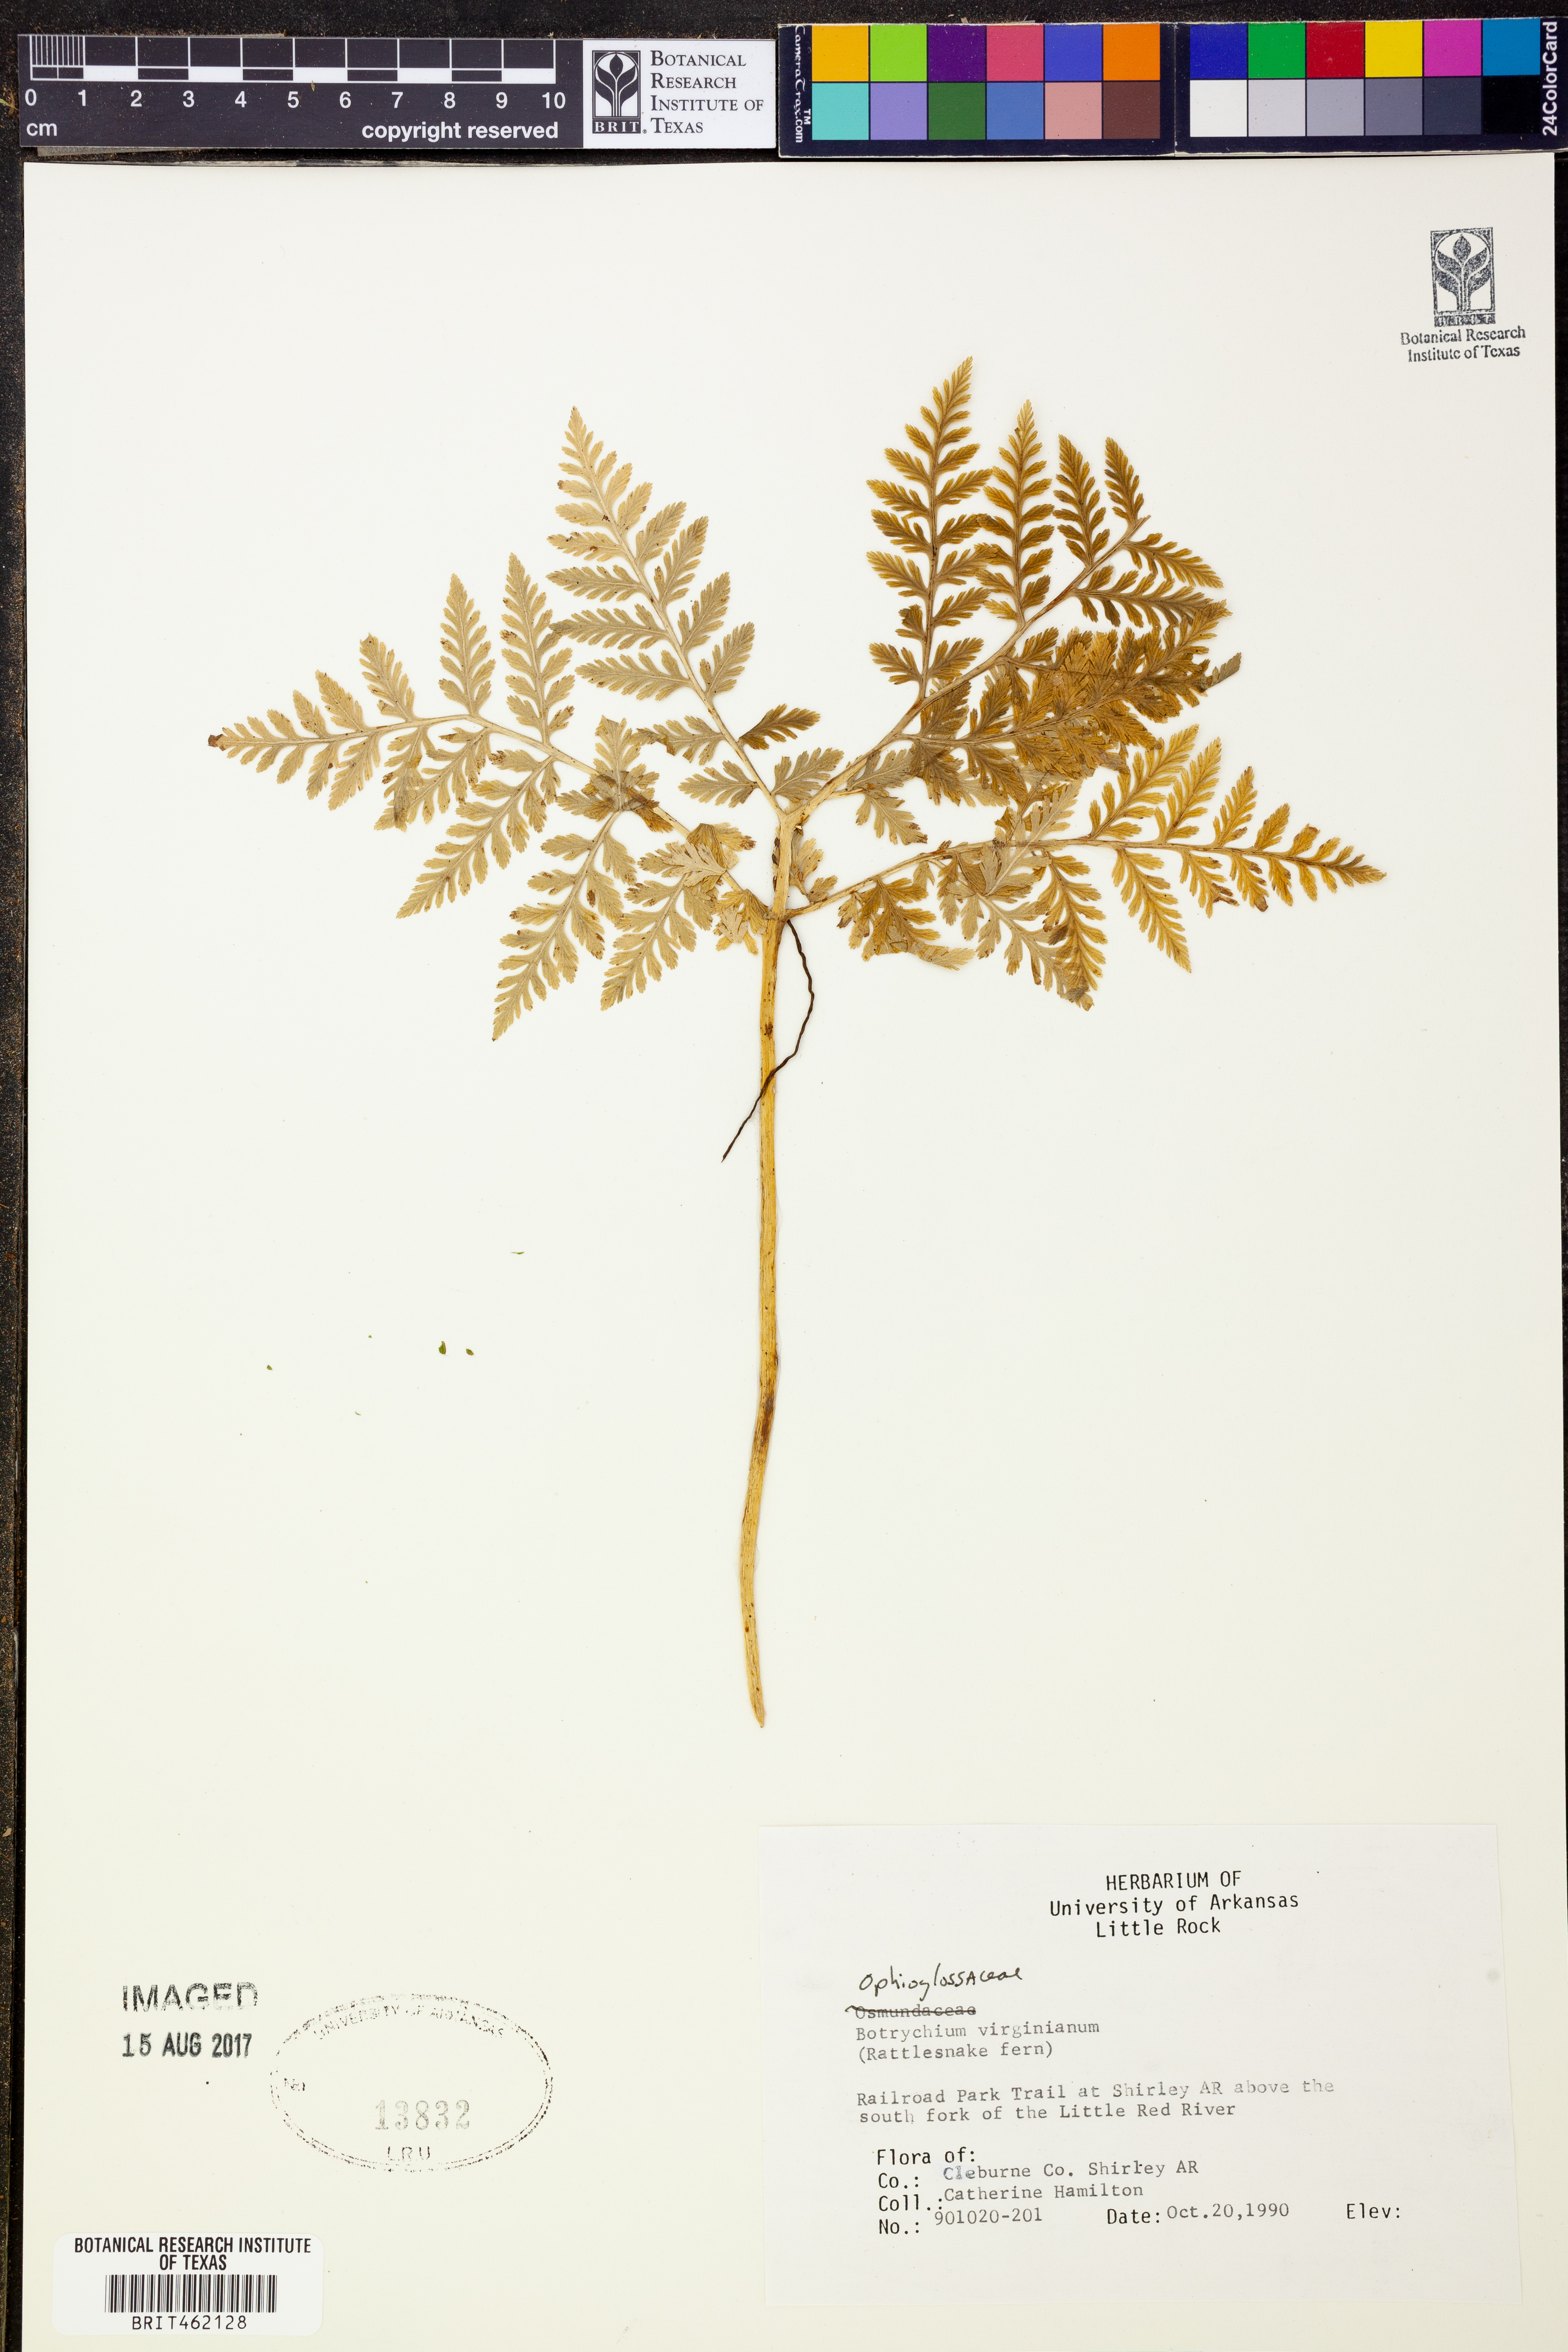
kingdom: Plantae
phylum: Tracheophyta
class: Polypodiopsida
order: Ophioglossales
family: Ophioglossaceae
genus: Botrypus
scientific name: Botrypus virginianus
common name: Common grapefern
